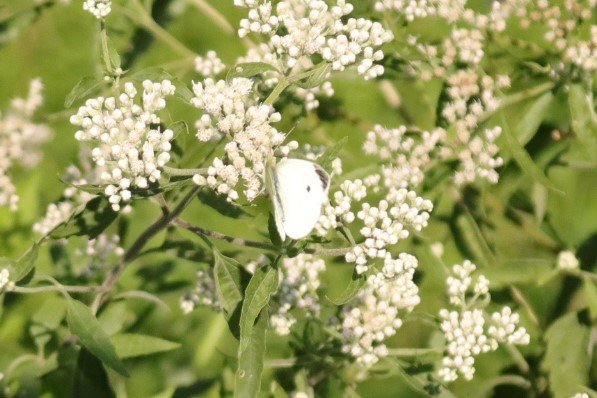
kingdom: Animalia
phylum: Arthropoda
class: Insecta
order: Lepidoptera
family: Pieridae
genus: Pieris
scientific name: Pieris rapae
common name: Cabbage White
